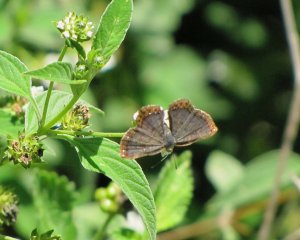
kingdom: Animalia
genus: Caria
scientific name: Caria ino
